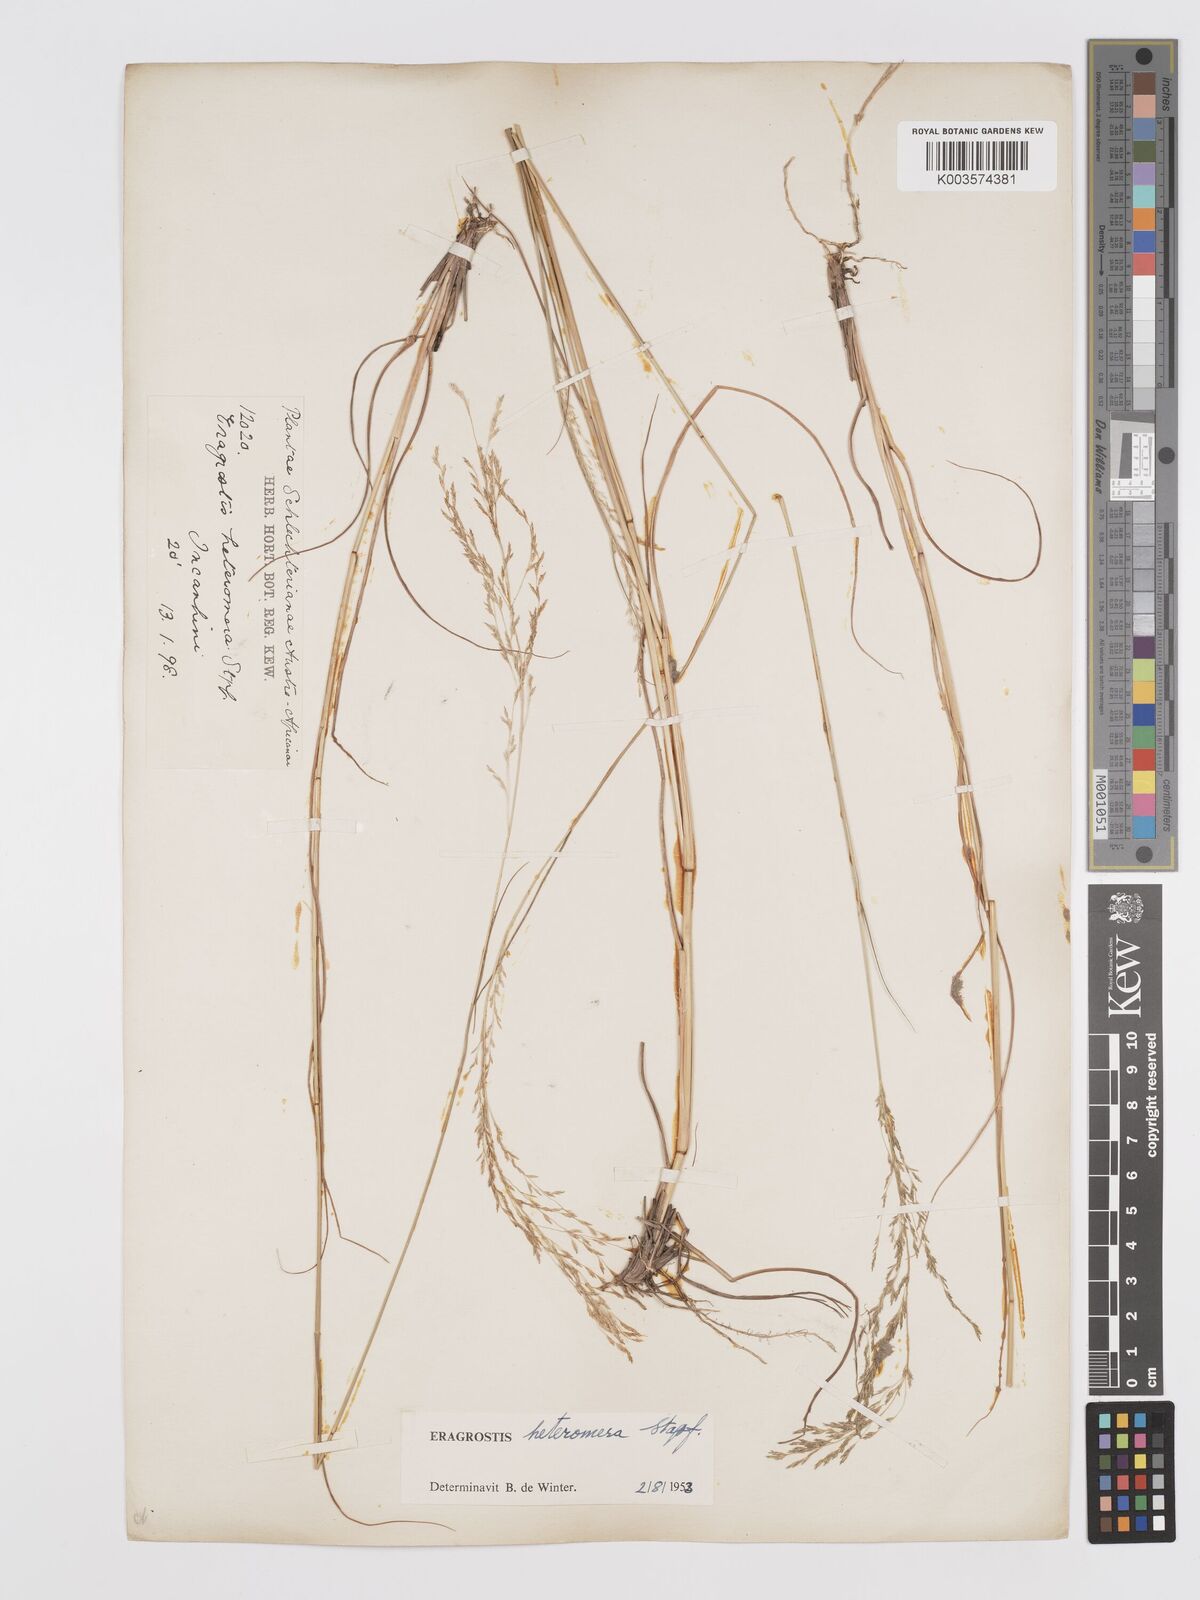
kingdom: Plantae
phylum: Tracheophyta
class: Liliopsida
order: Poales
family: Poaceae
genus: Eragrostis
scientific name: Eragrostis heteromera
